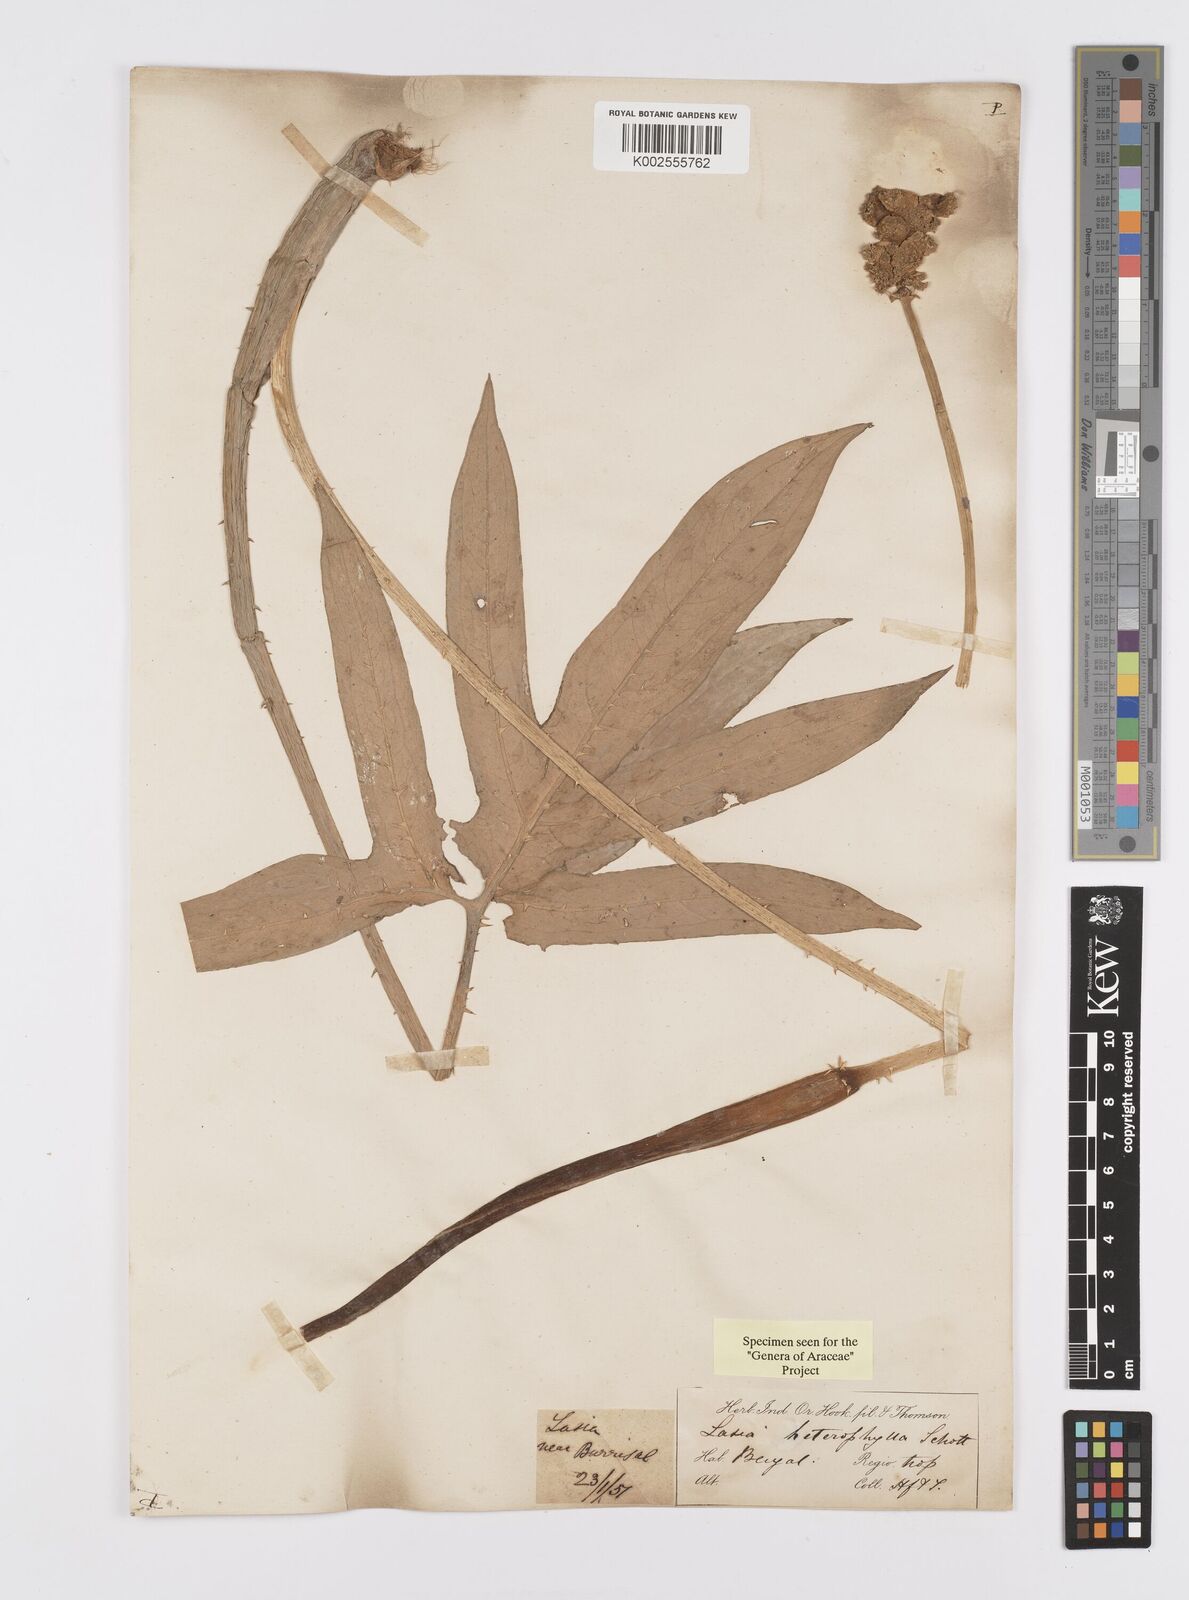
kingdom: Plantae
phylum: Tracheophyta
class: Liliopsida
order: Alismatales
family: Araceae
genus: Lasia
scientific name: Lasia spinosa
